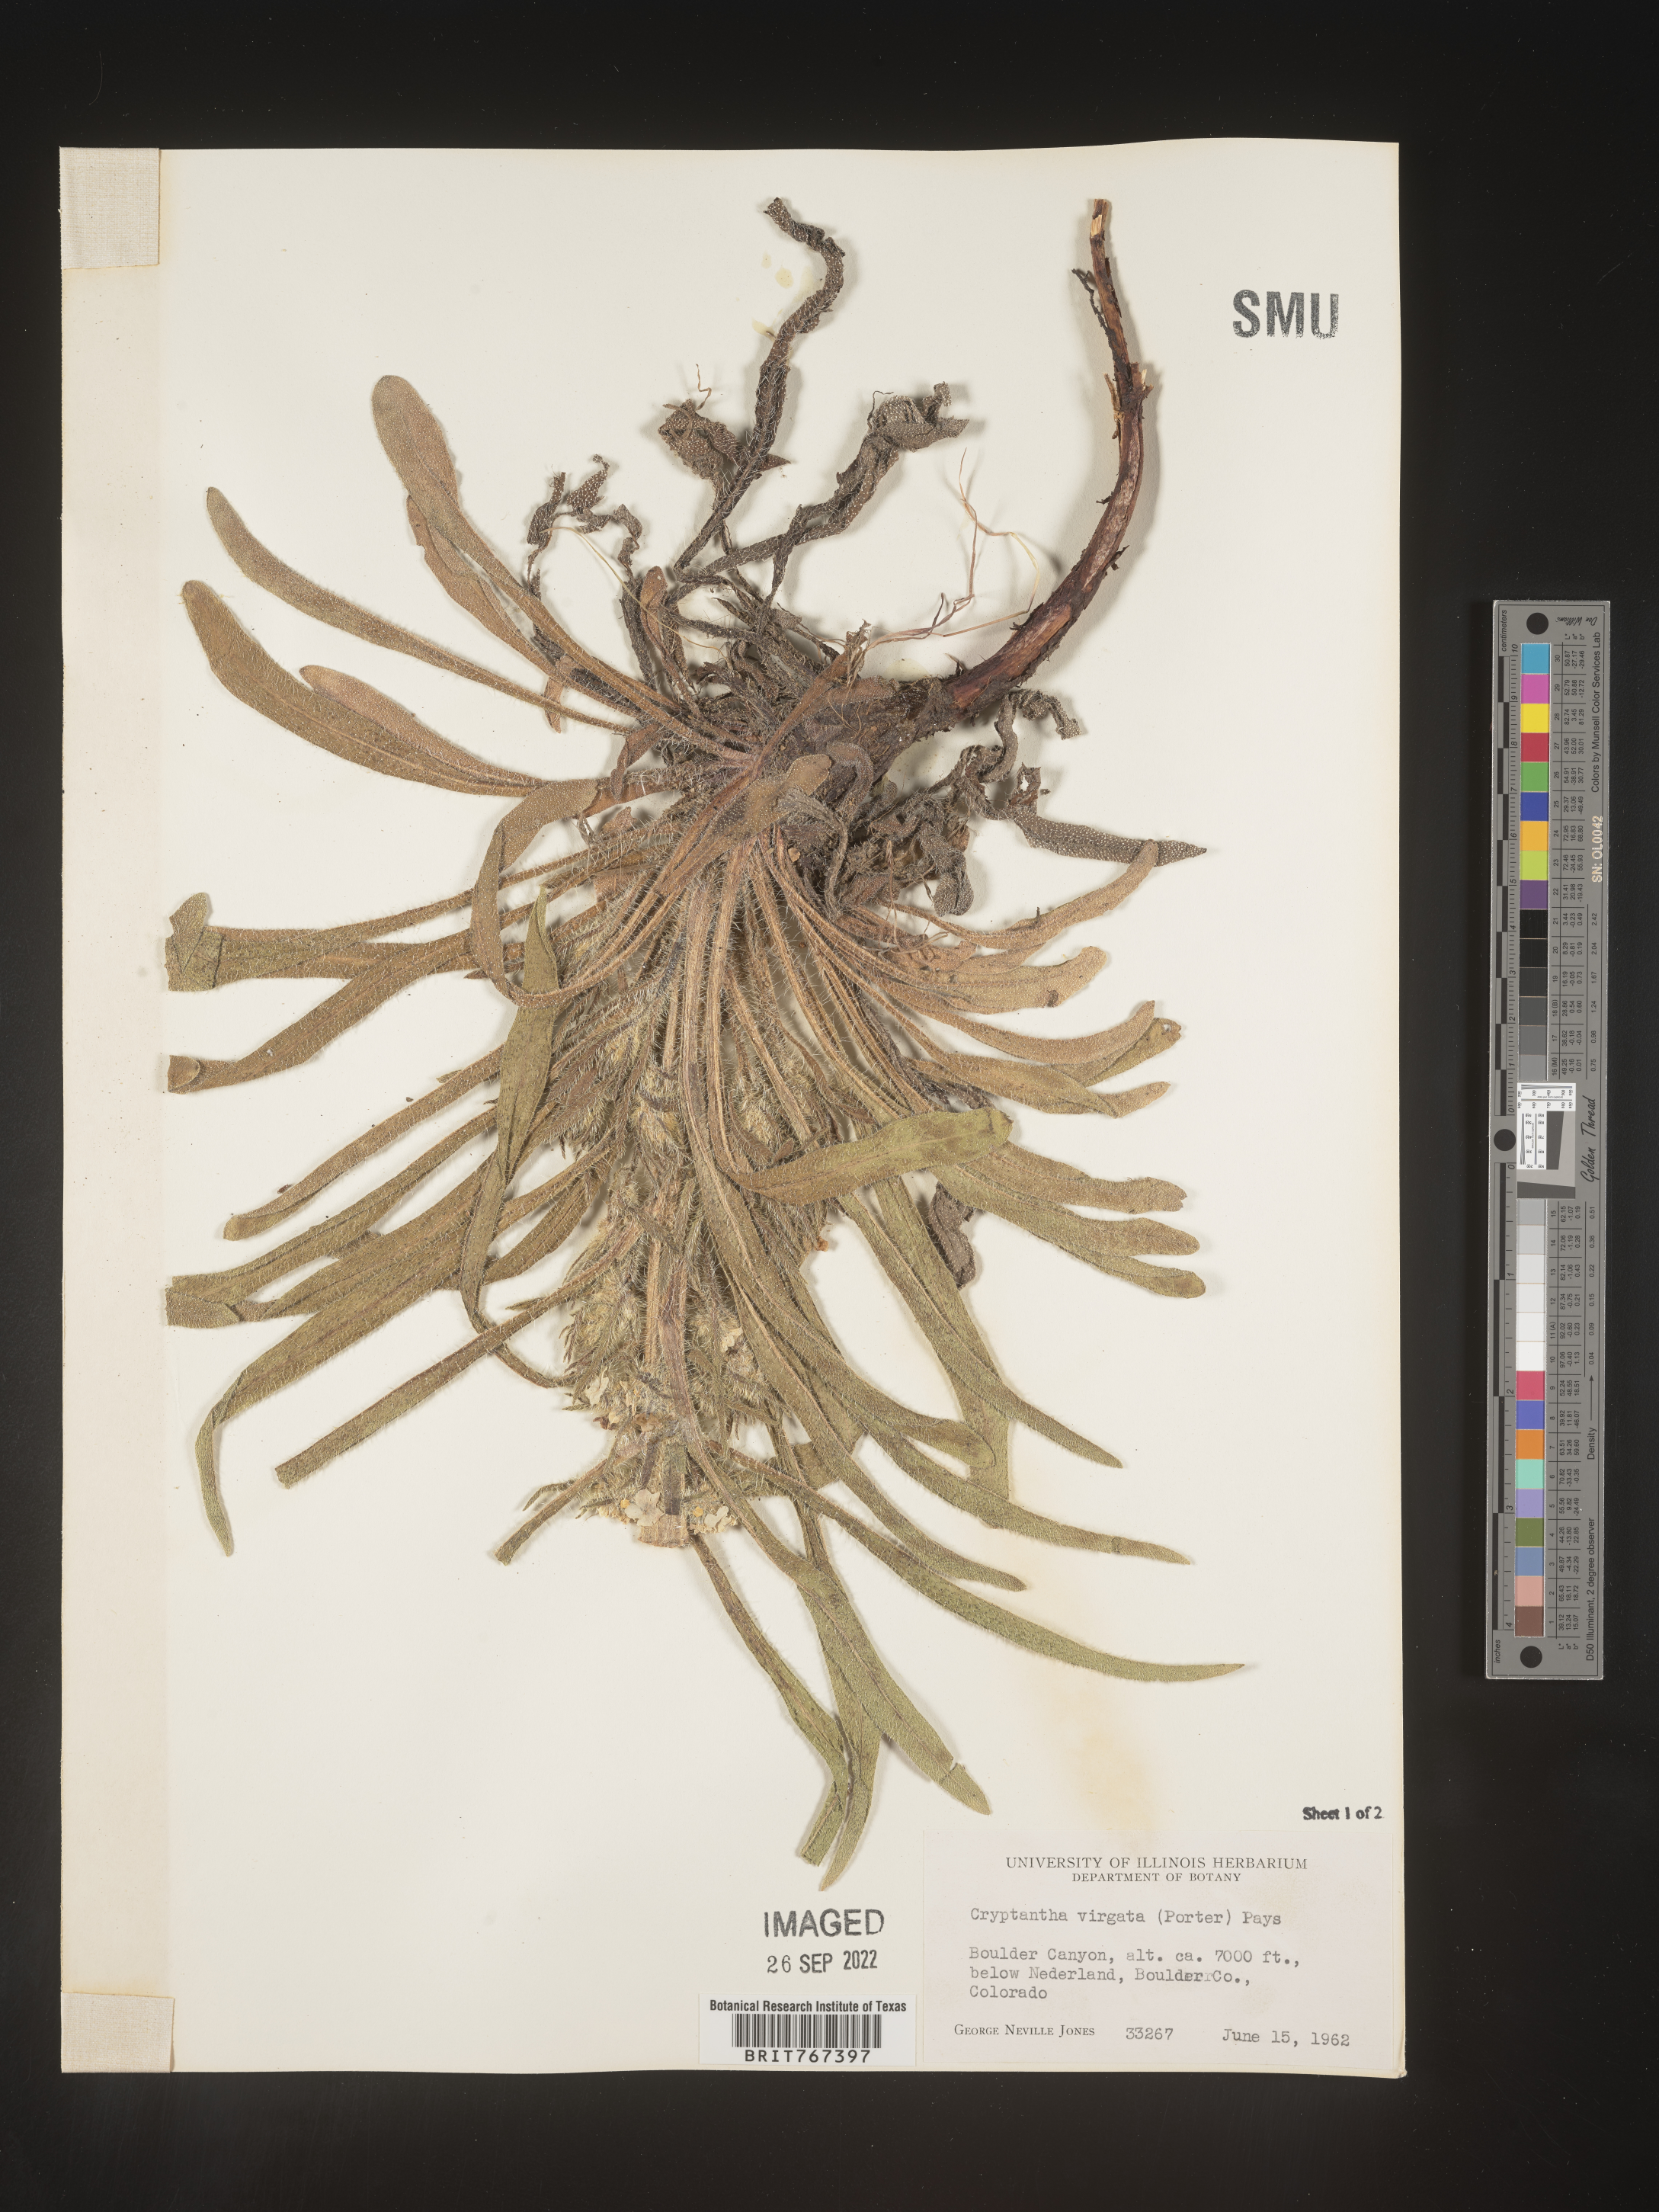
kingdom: Plantae
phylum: Tracheophyta
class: Magnoliopsida
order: Boraginales
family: Boraginaceae
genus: Cryptantha
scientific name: Cryptantha
